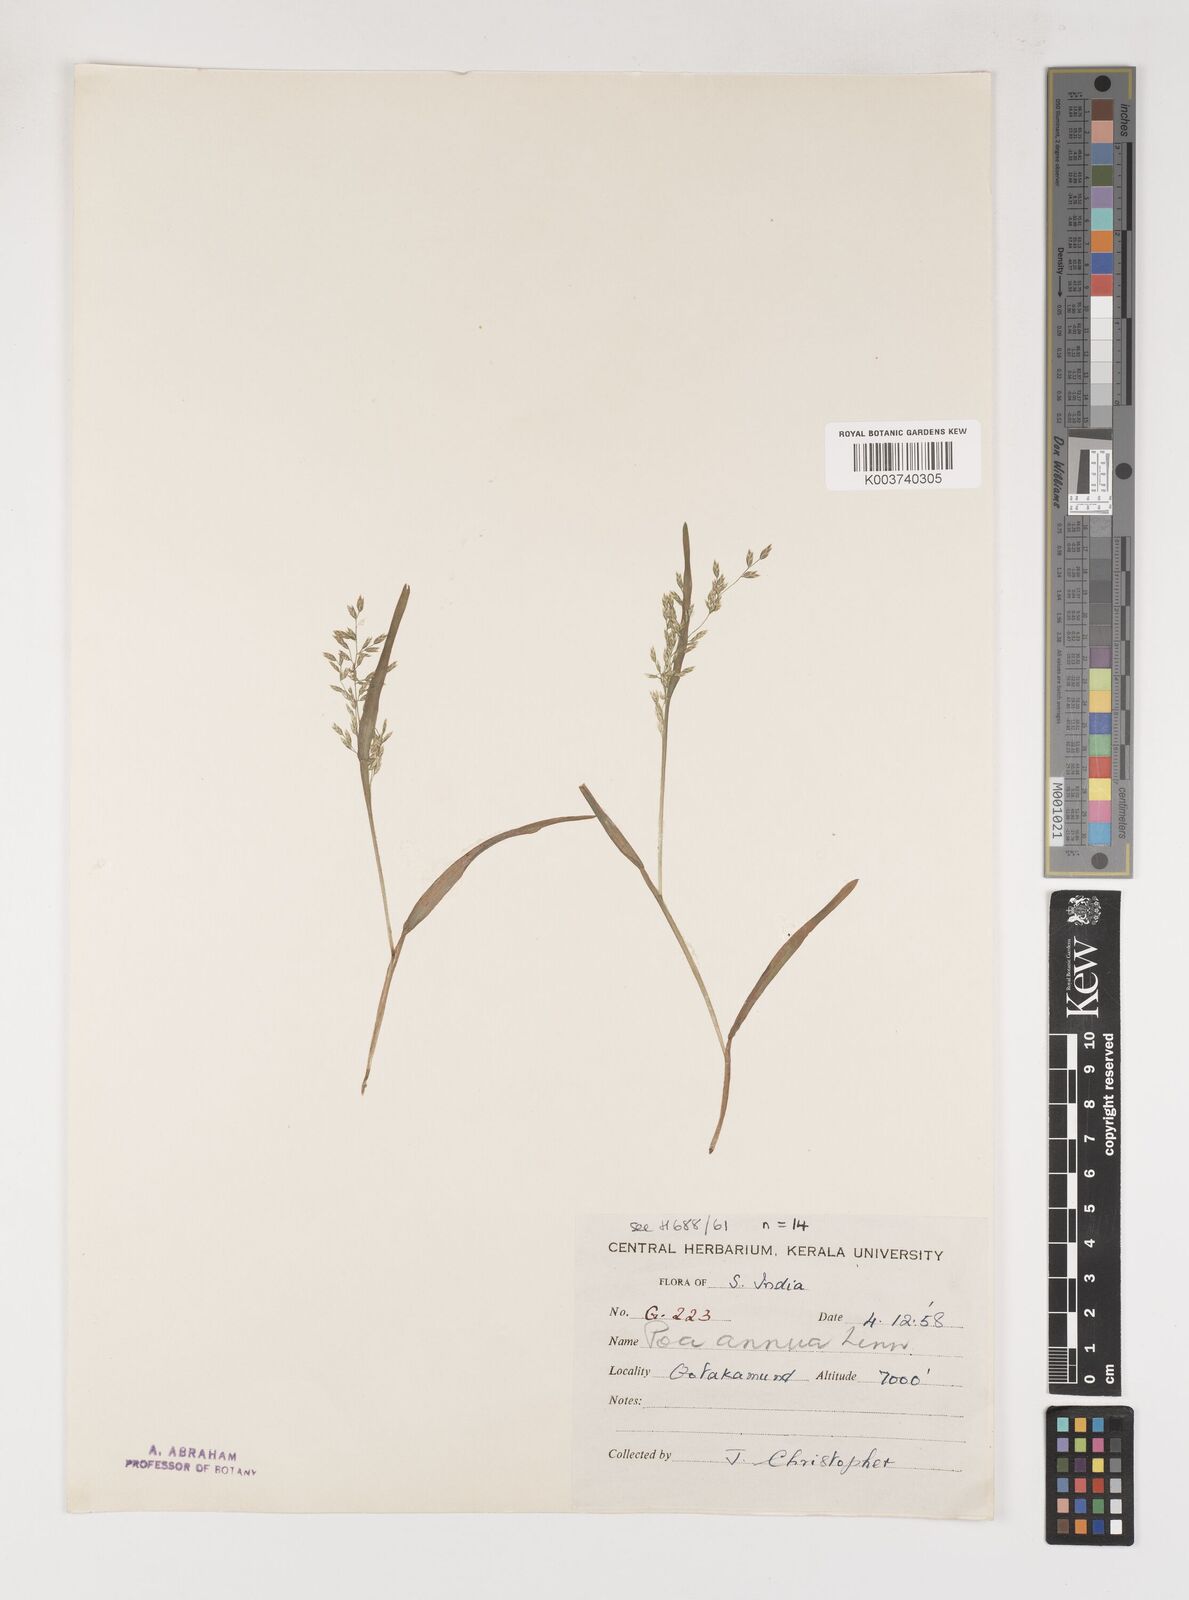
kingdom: Plantae
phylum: Tracheophyta
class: Liliopsida
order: Poales
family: Poaceae
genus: Poa
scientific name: Poa annua
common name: Annual bluegrass
